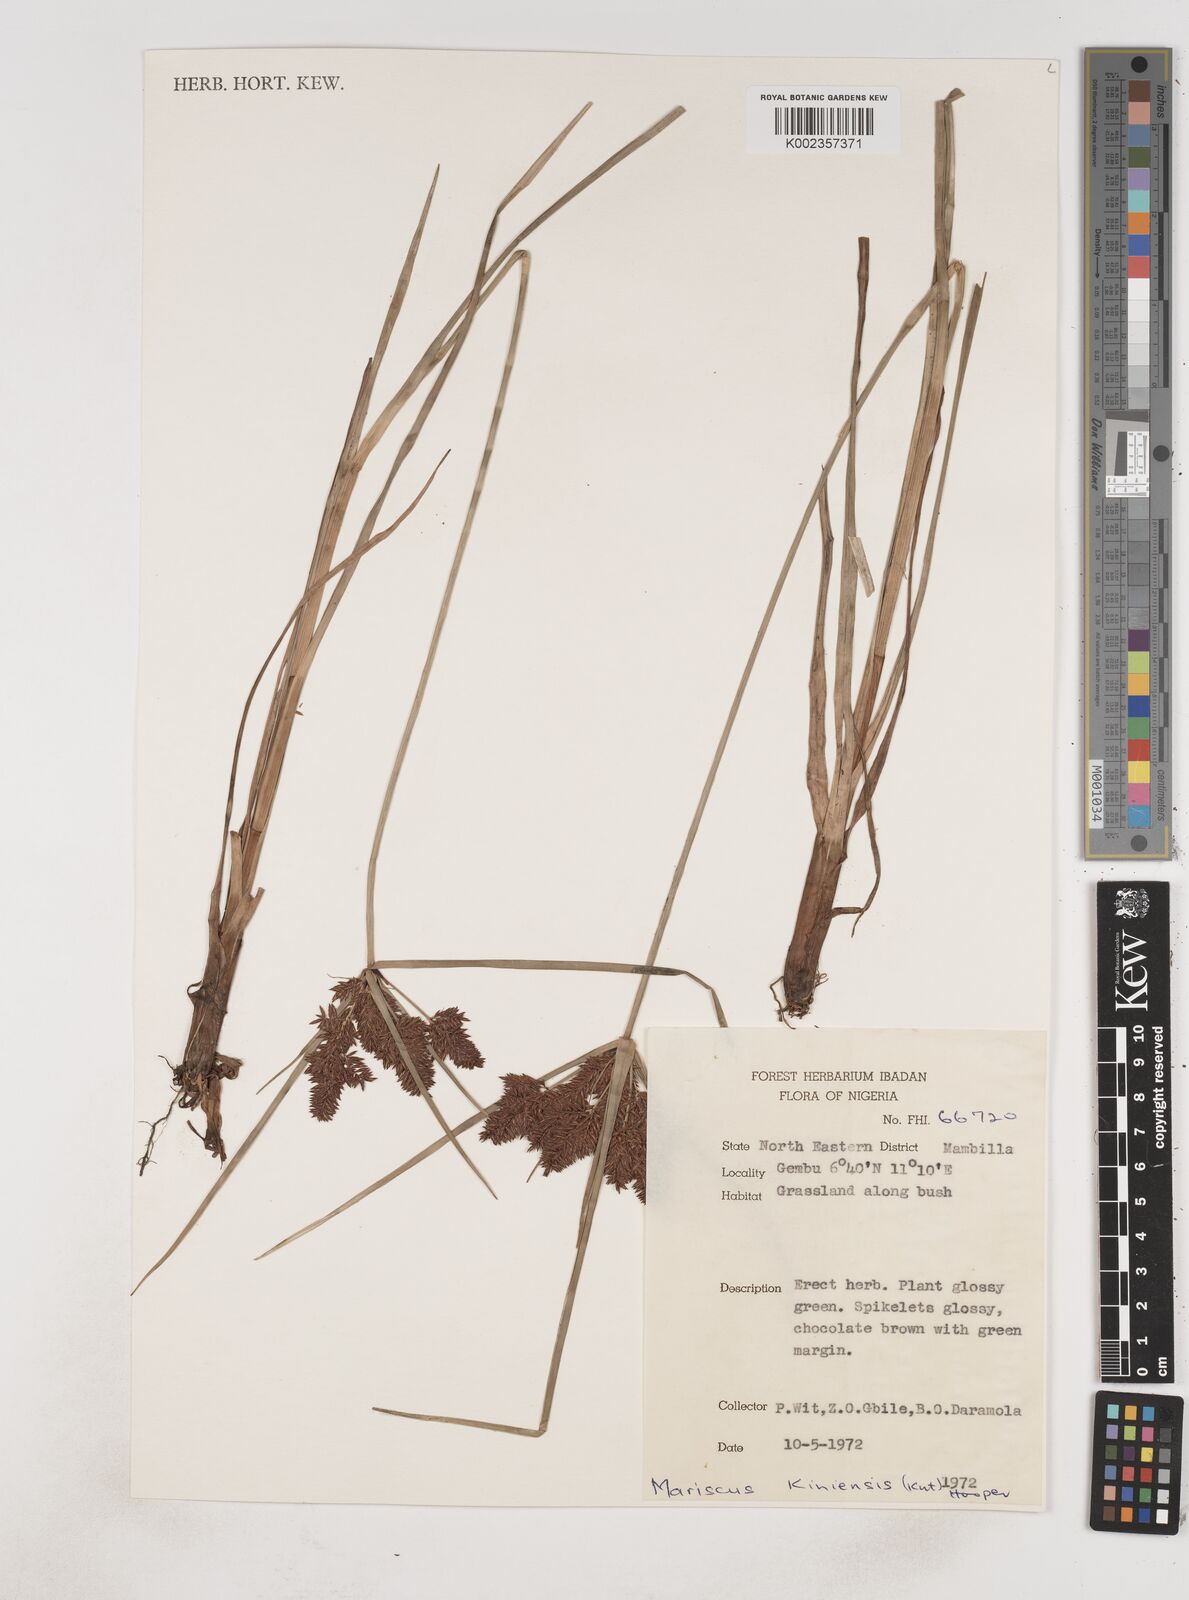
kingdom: Plantae
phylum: Tracheophyta
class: Liliopsida
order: Poales
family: Cyperaceae
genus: Cyperus
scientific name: Cyperus distans
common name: Slender cyperus
